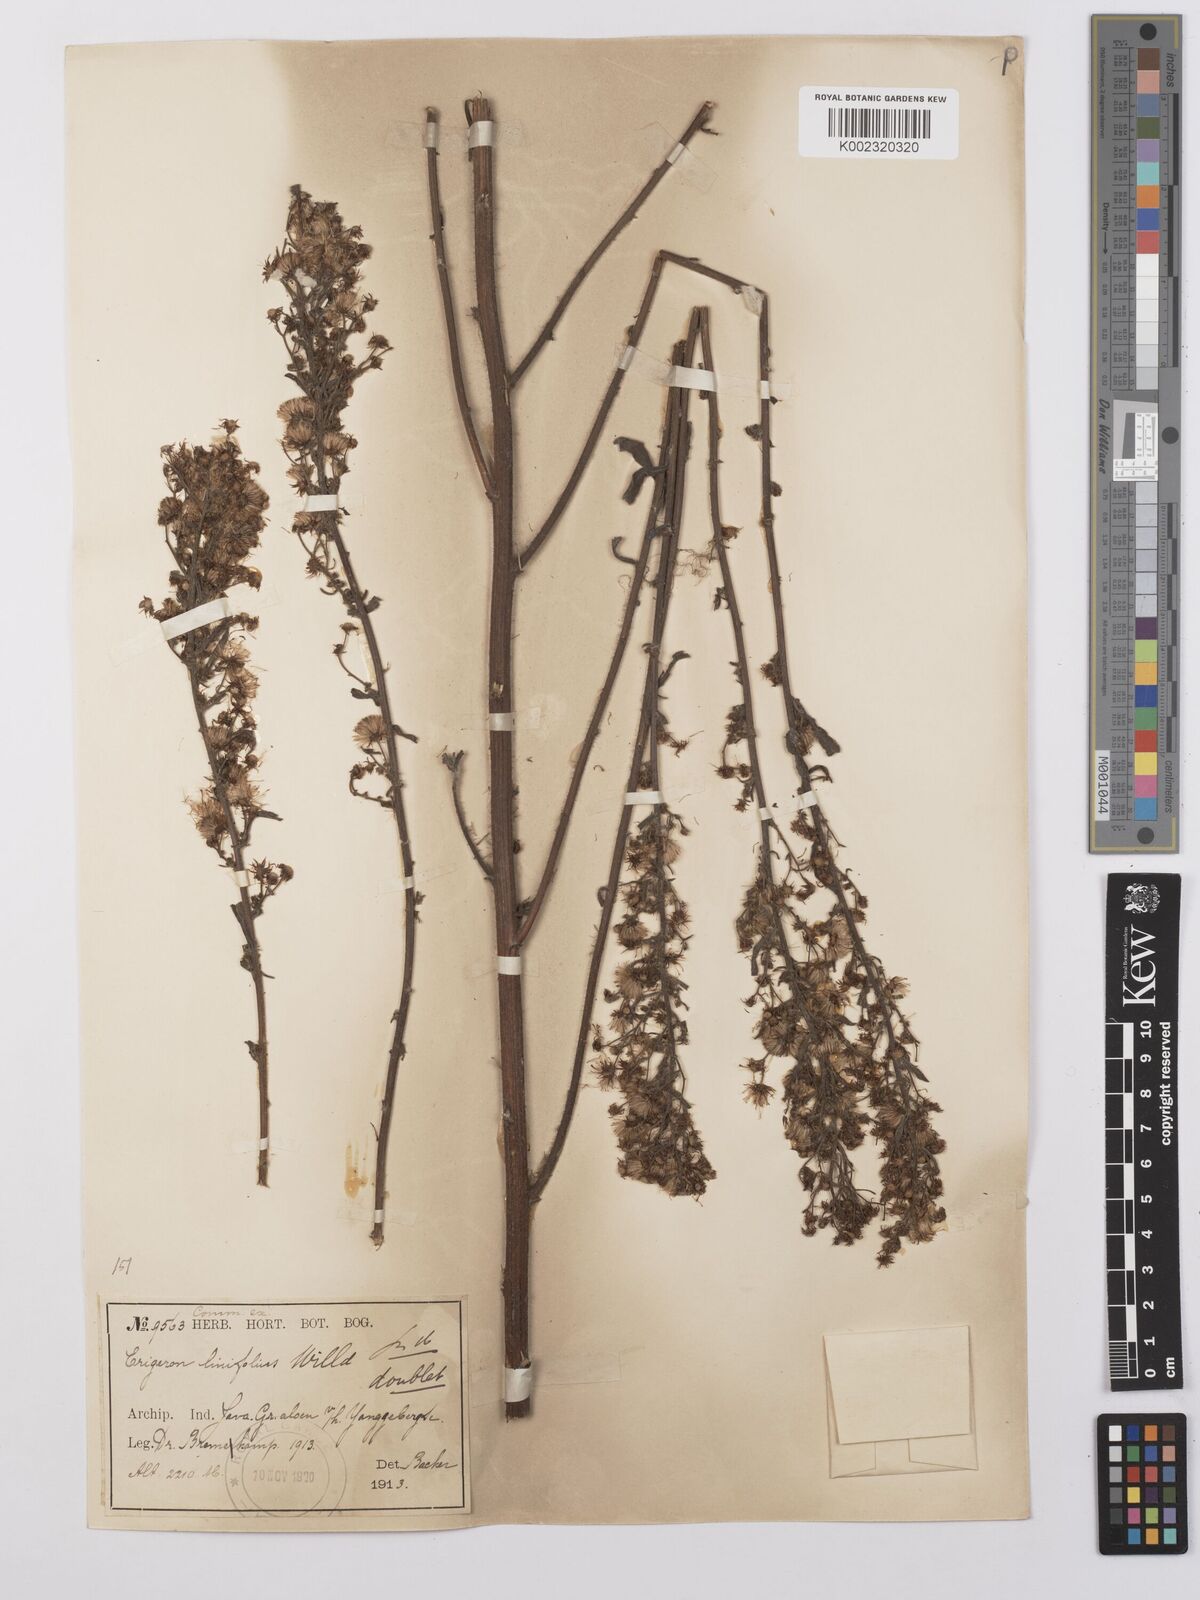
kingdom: Plantae
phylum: Tracheophyta
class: Magnoliopsida
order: Asterales
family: Asteraceae
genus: Erigeron
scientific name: Erigeron sumatrensis
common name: Daisy
